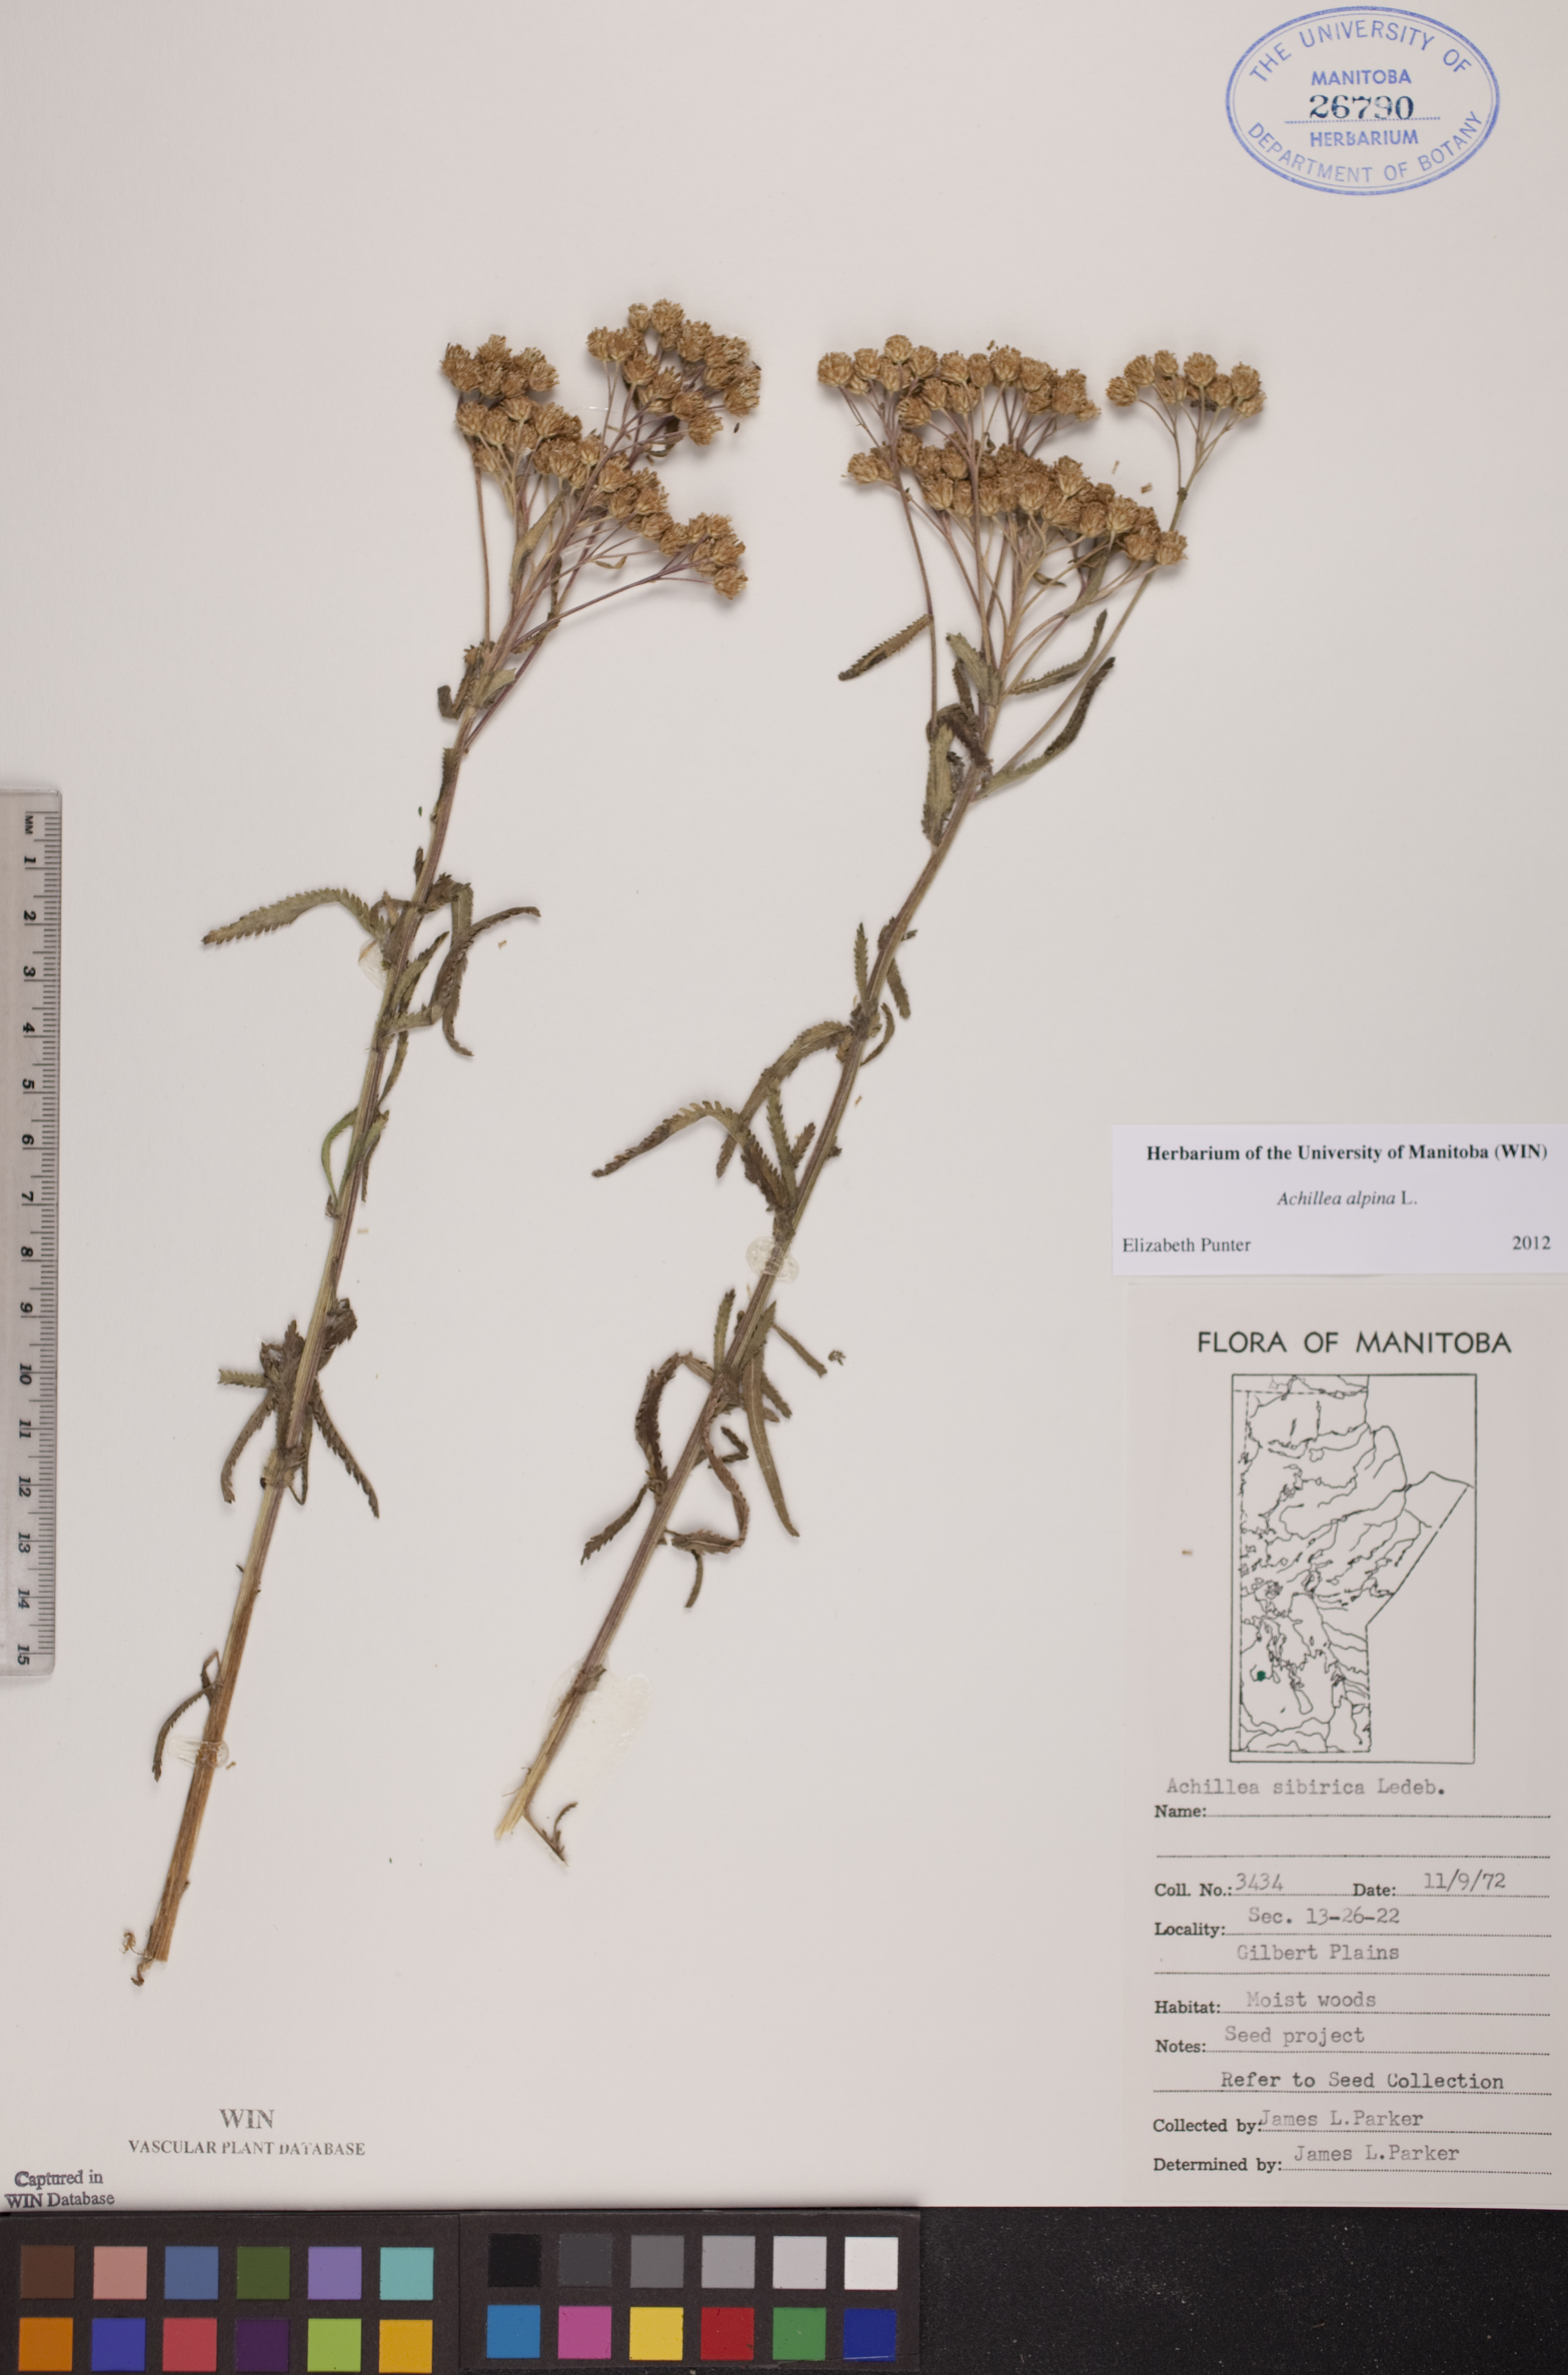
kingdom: Plantae
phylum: Tracheophyta
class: Magnoliopsida
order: Asterales
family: Asteraceae
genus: Achillea
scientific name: Achillea alpina
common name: Siberian yarrow
